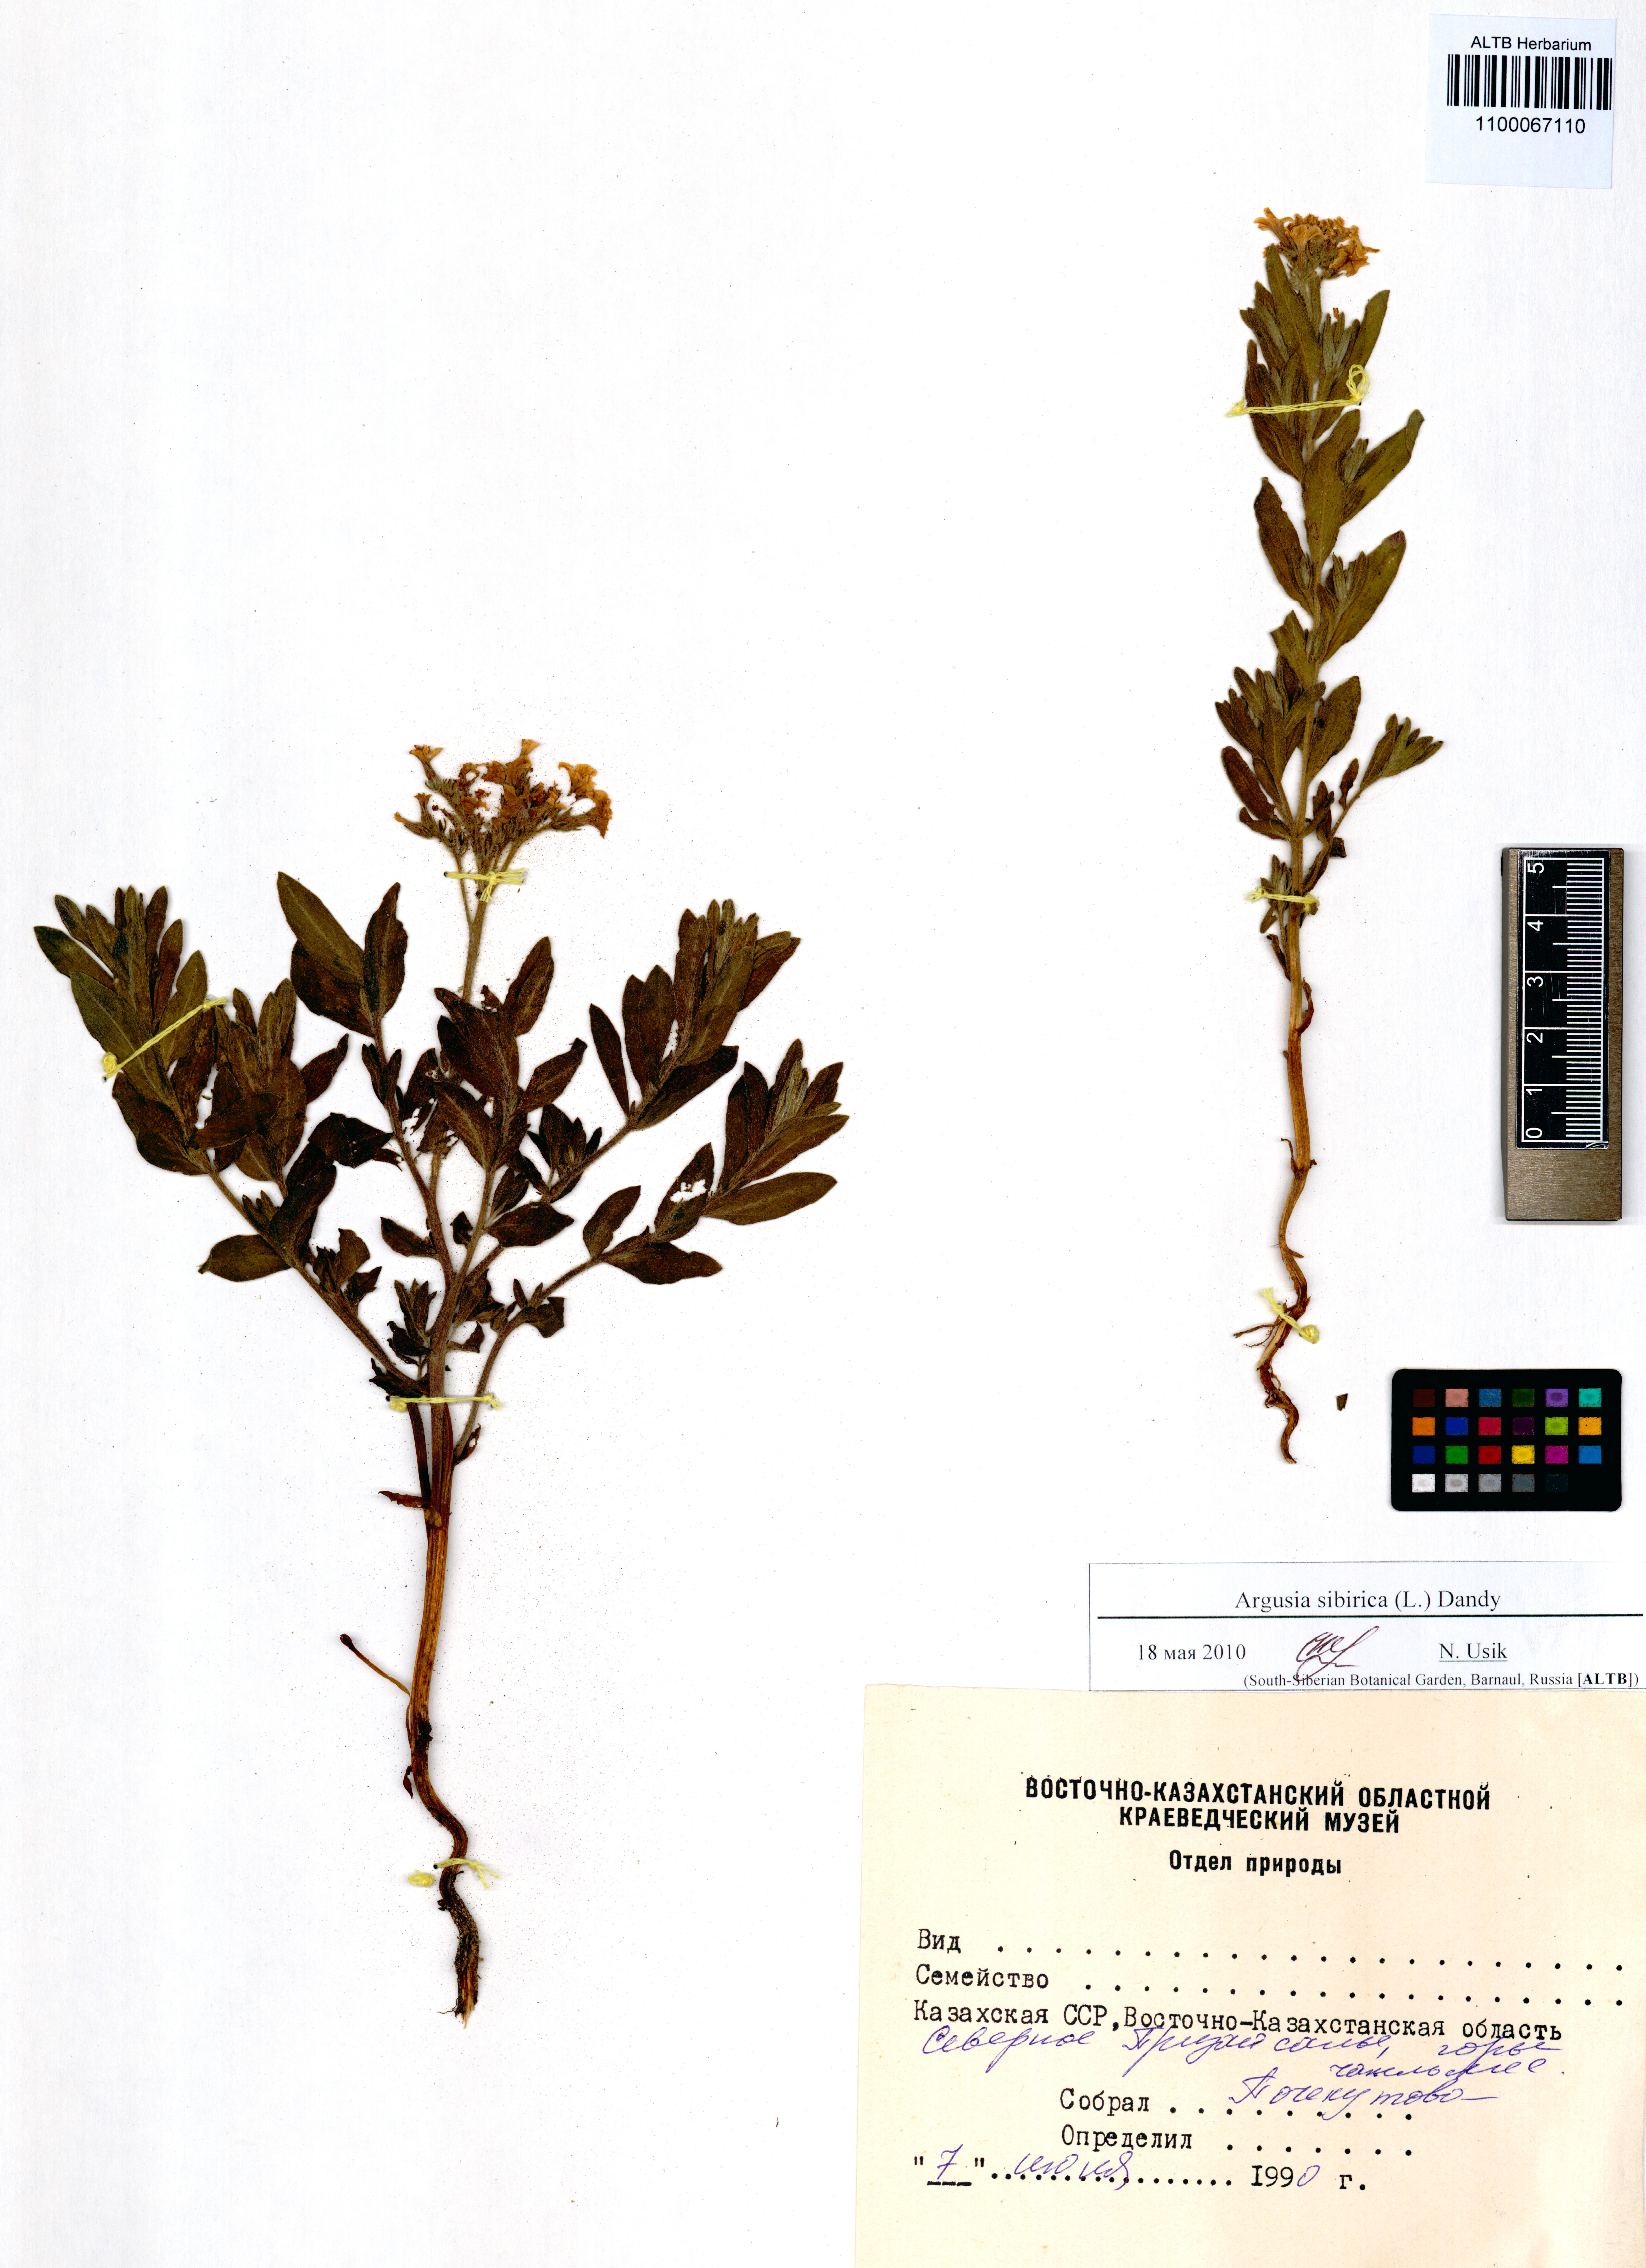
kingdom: Plantae
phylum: Tracheophyta
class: Magnoliopsida
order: Boraginales
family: Heliotropiaceae
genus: Tournefortia
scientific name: Tournefortia sibirica
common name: Siberian sea rosemary
